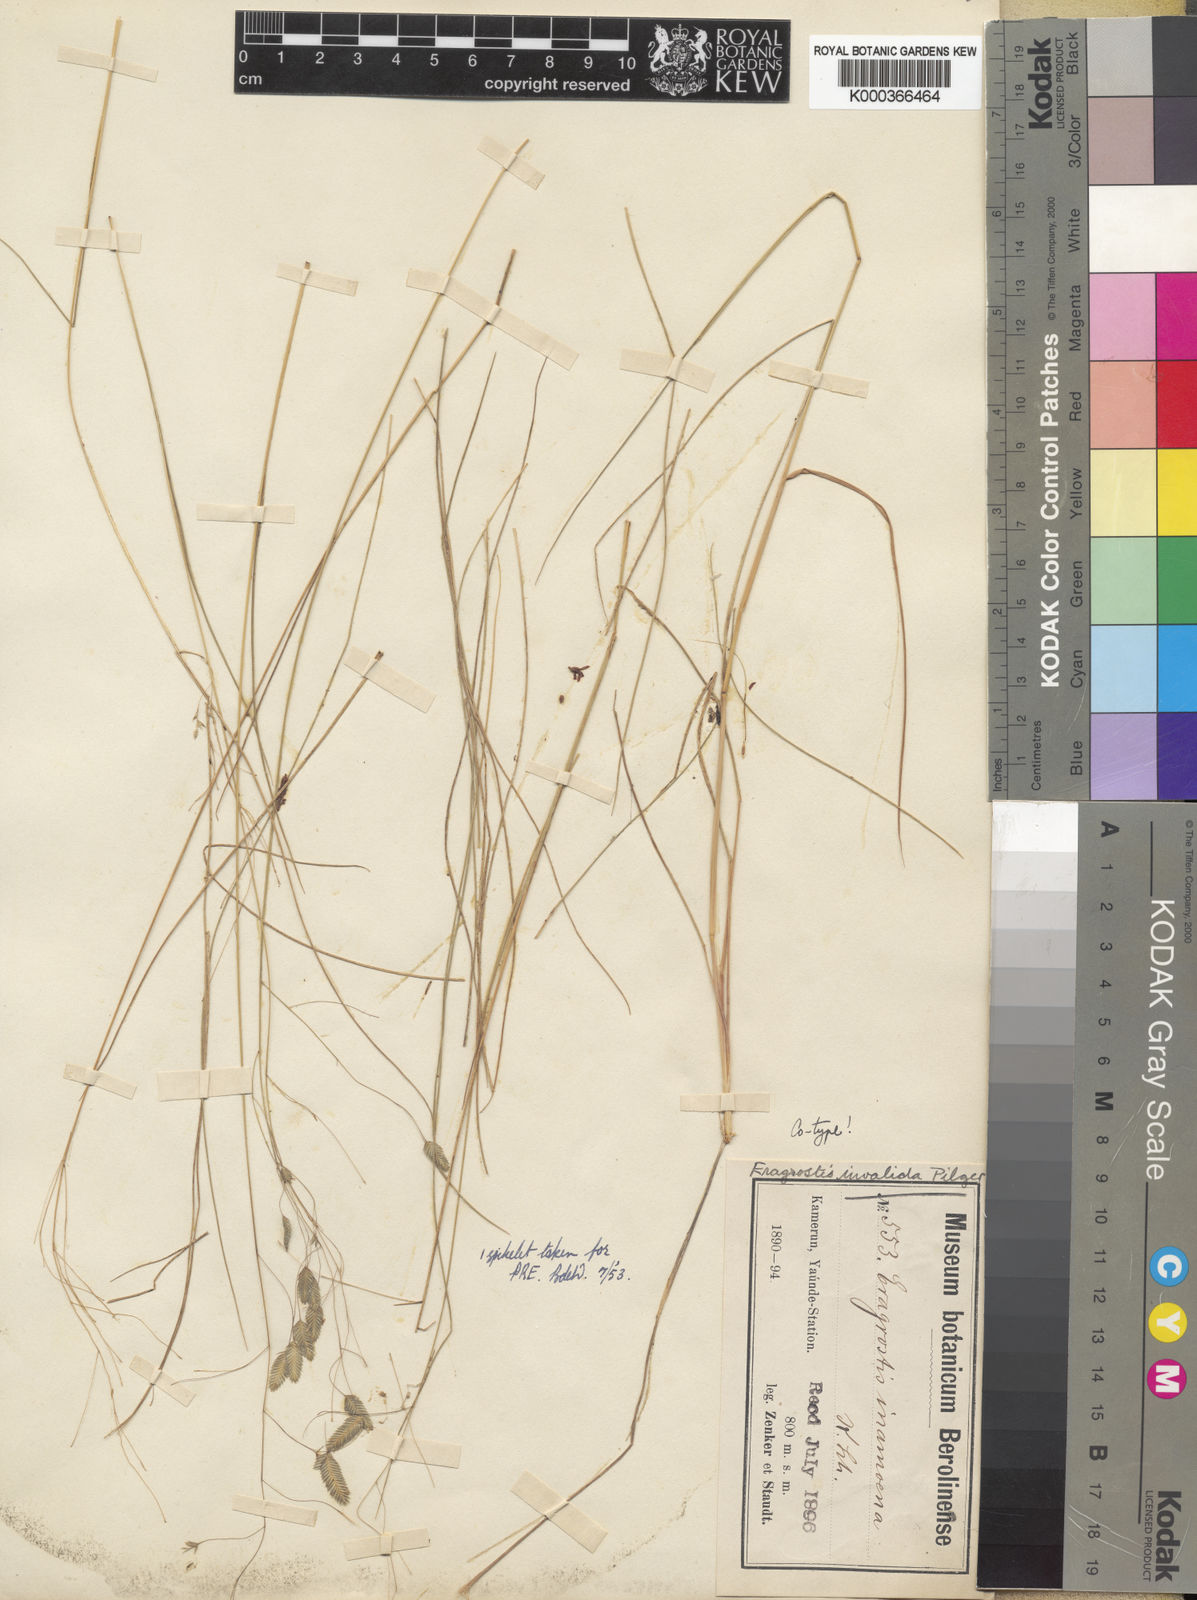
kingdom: Plantae
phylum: Tracheophyta
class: Liliopsida
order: Poales
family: Poaceae
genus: Eragrostis
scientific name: Eragrostis invalida
